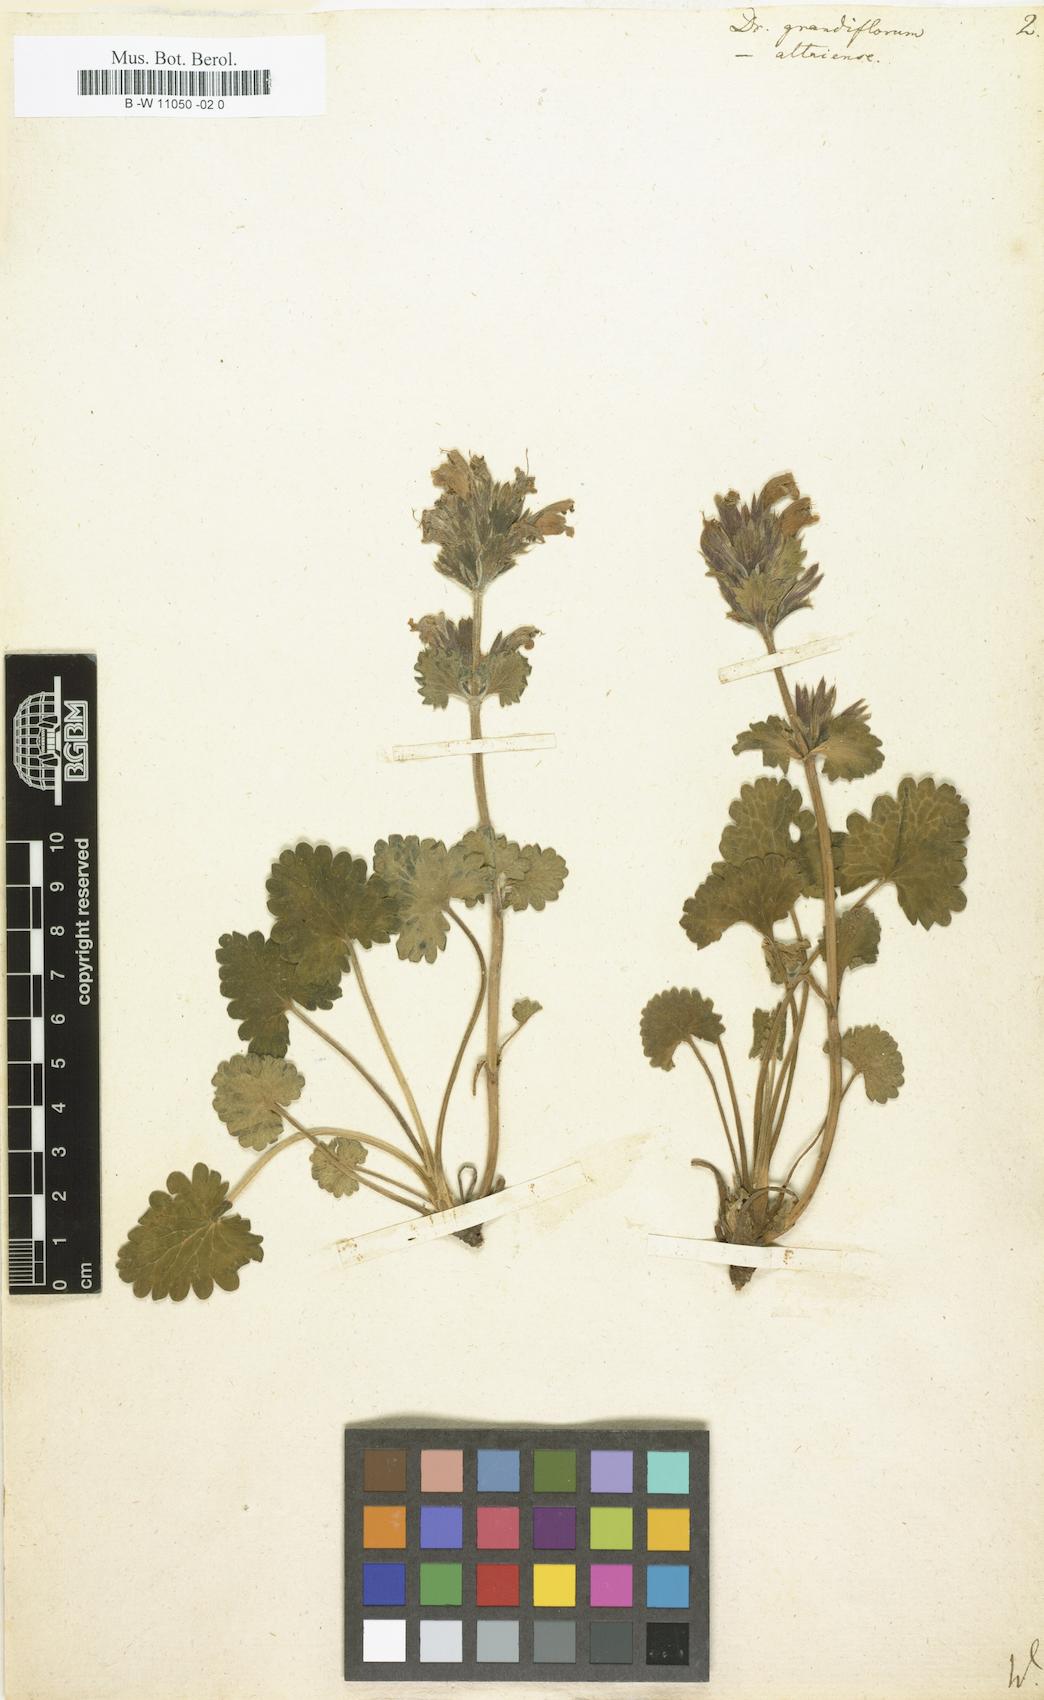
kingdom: Plantae
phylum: Tracheophyta
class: Magnoliopsida
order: Lamiales
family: Lamiaceae
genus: Dracocephalum
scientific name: Dracocephalum grandiflorum
